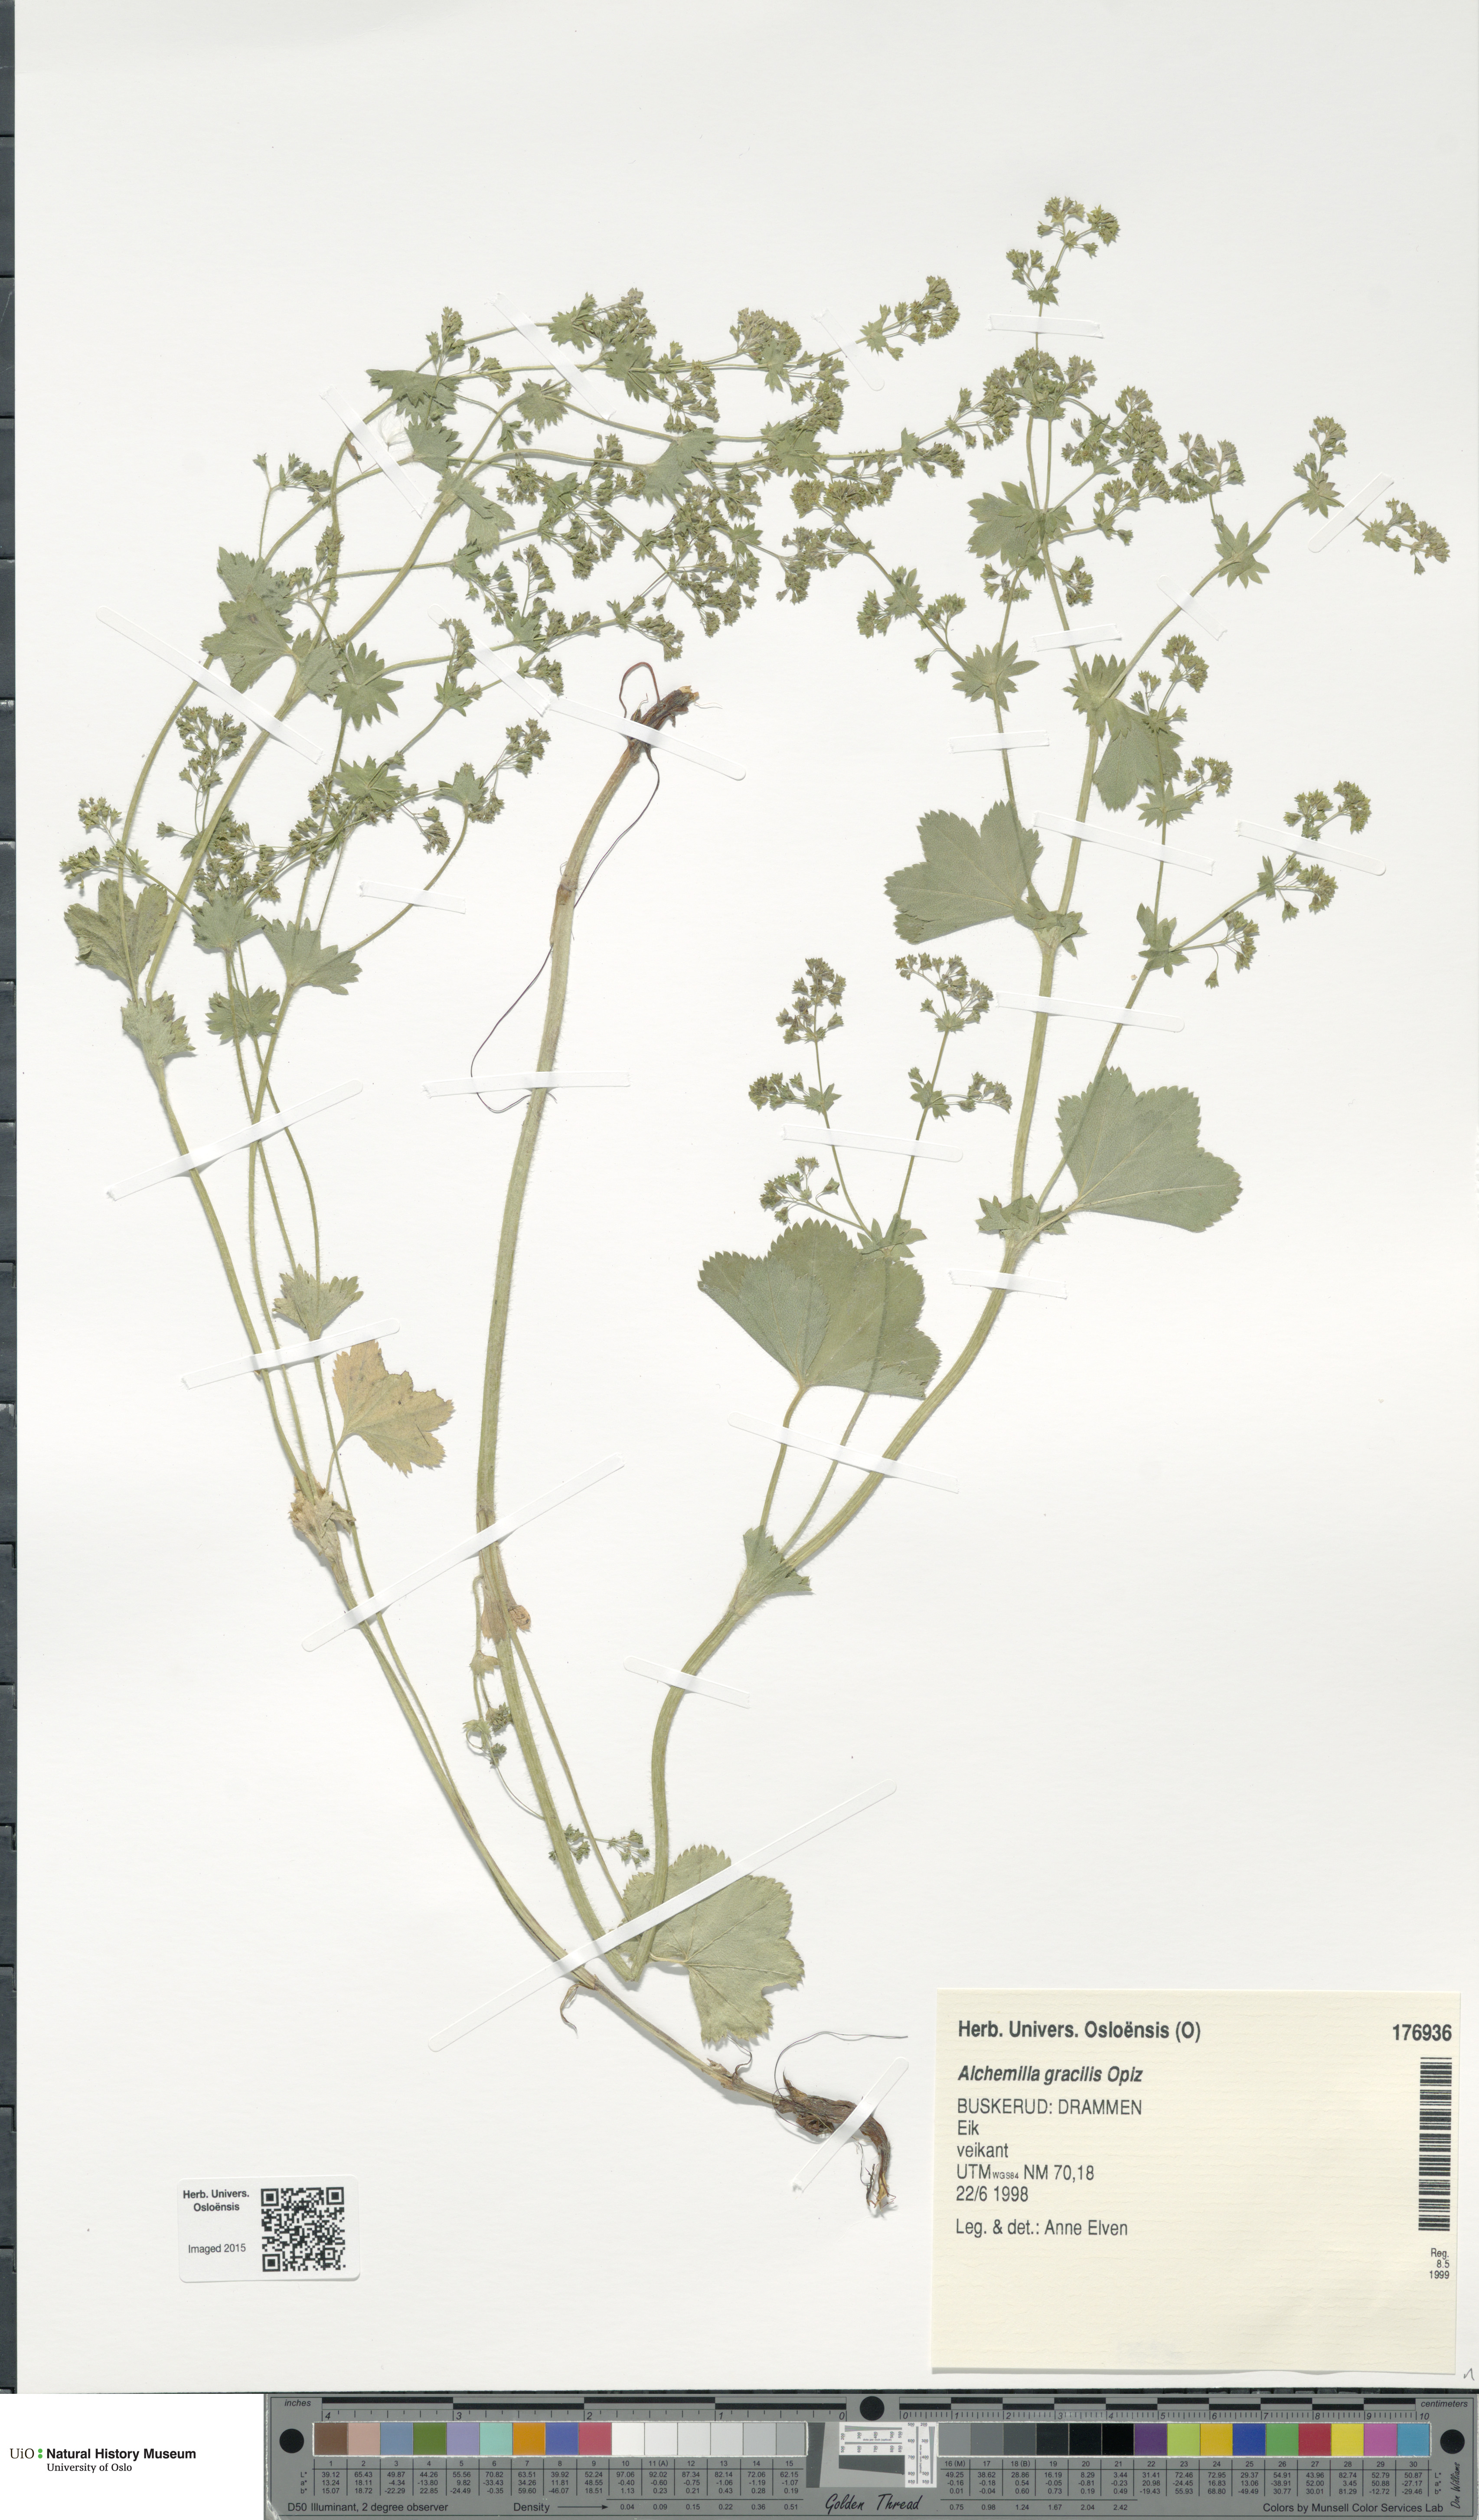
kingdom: Plantae
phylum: Tracheophyta
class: Magnoliopsida
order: Rosales
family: Rosaceae
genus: Alchemilla
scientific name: Alchemilla micans
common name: Gleaming lady's mantle
